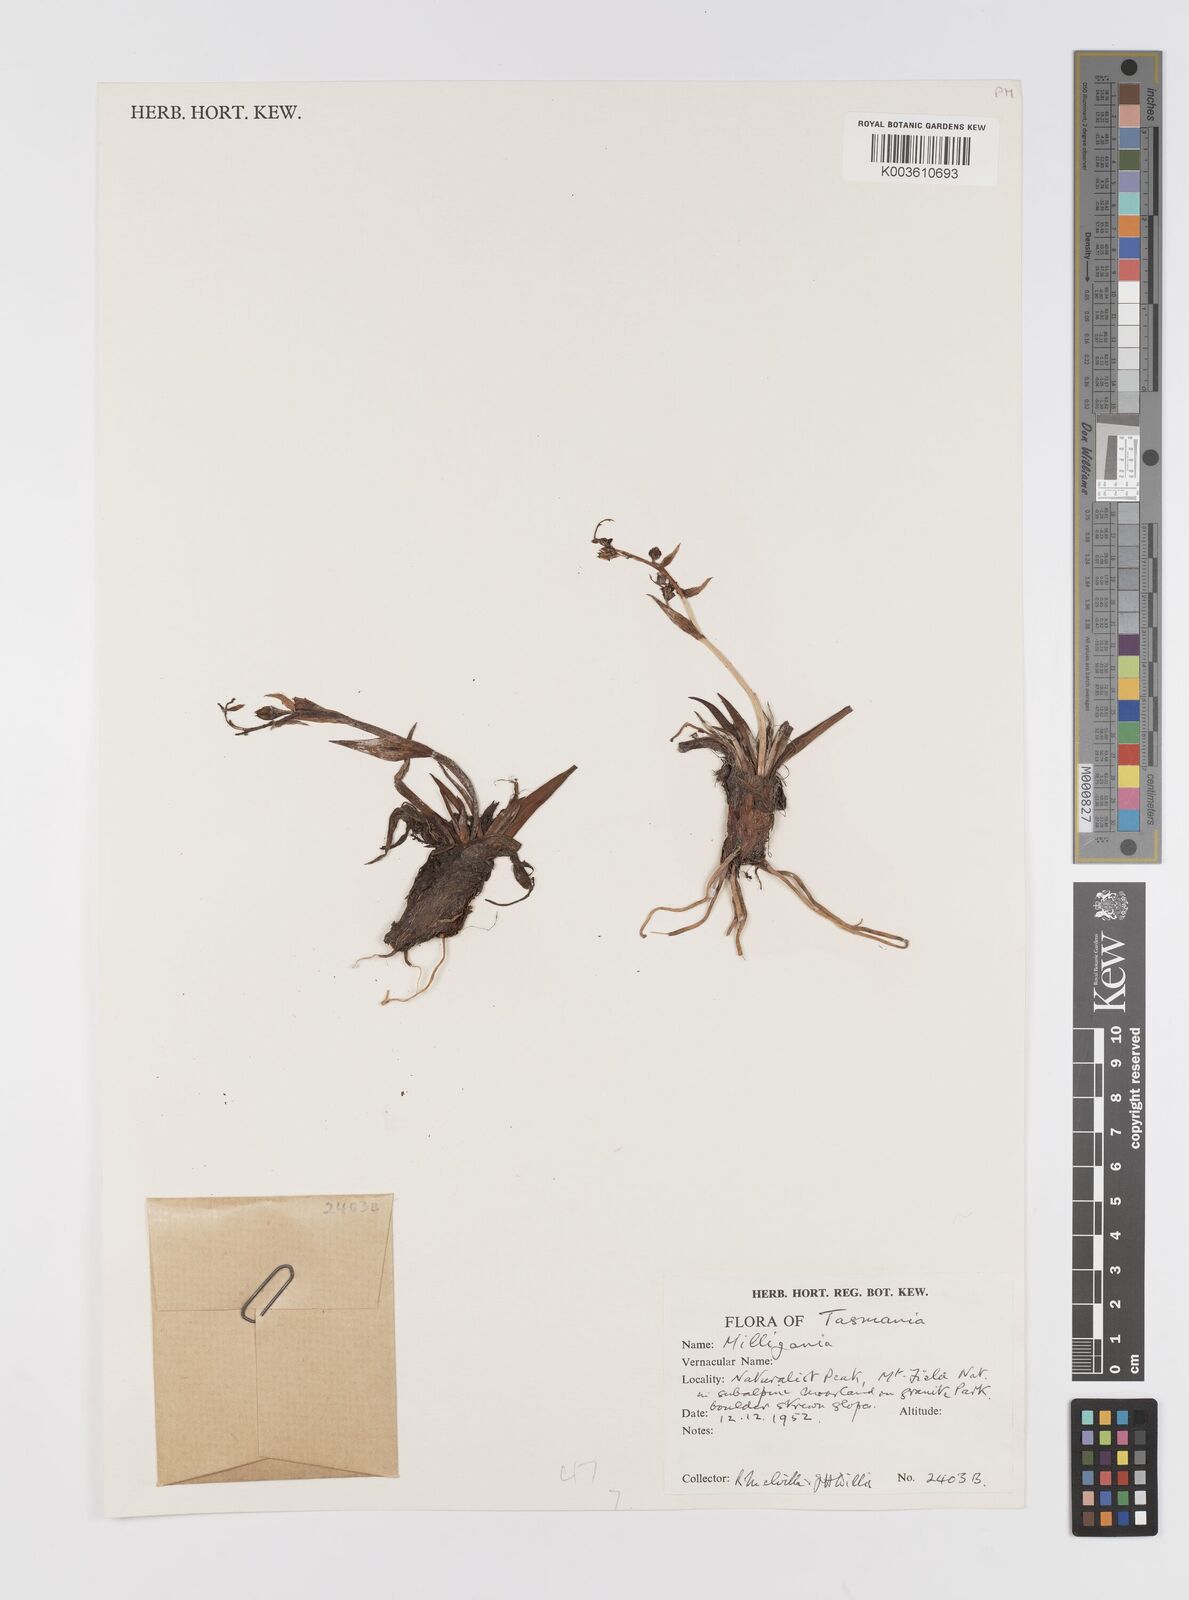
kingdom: Plantae
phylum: Tracheophyta
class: Liliopsida
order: Asparagales
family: Asteliaceae
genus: Milligania
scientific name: Milligania
